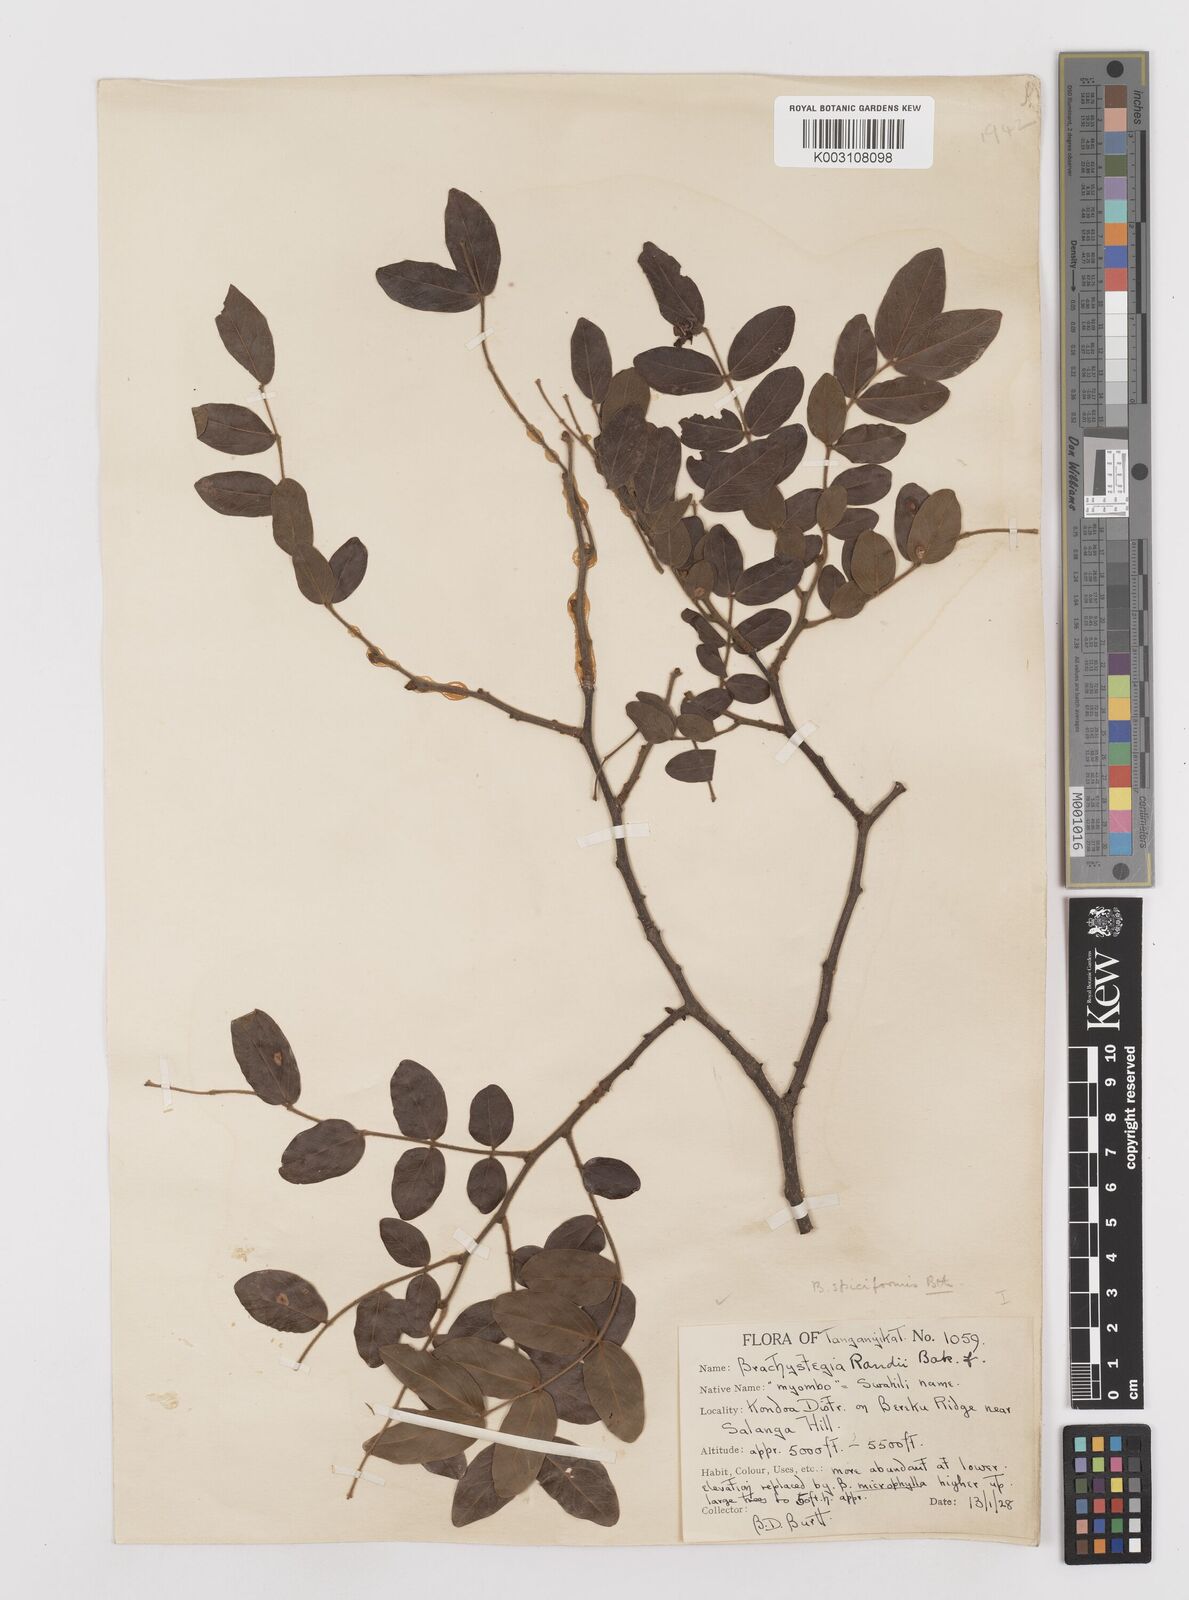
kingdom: Plantae
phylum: Tracheophyta
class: Magnoliopsida
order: Fabales
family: Fabaceae
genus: Brachystegia
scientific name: Brachystegia spiciformis
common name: Zebrawood
